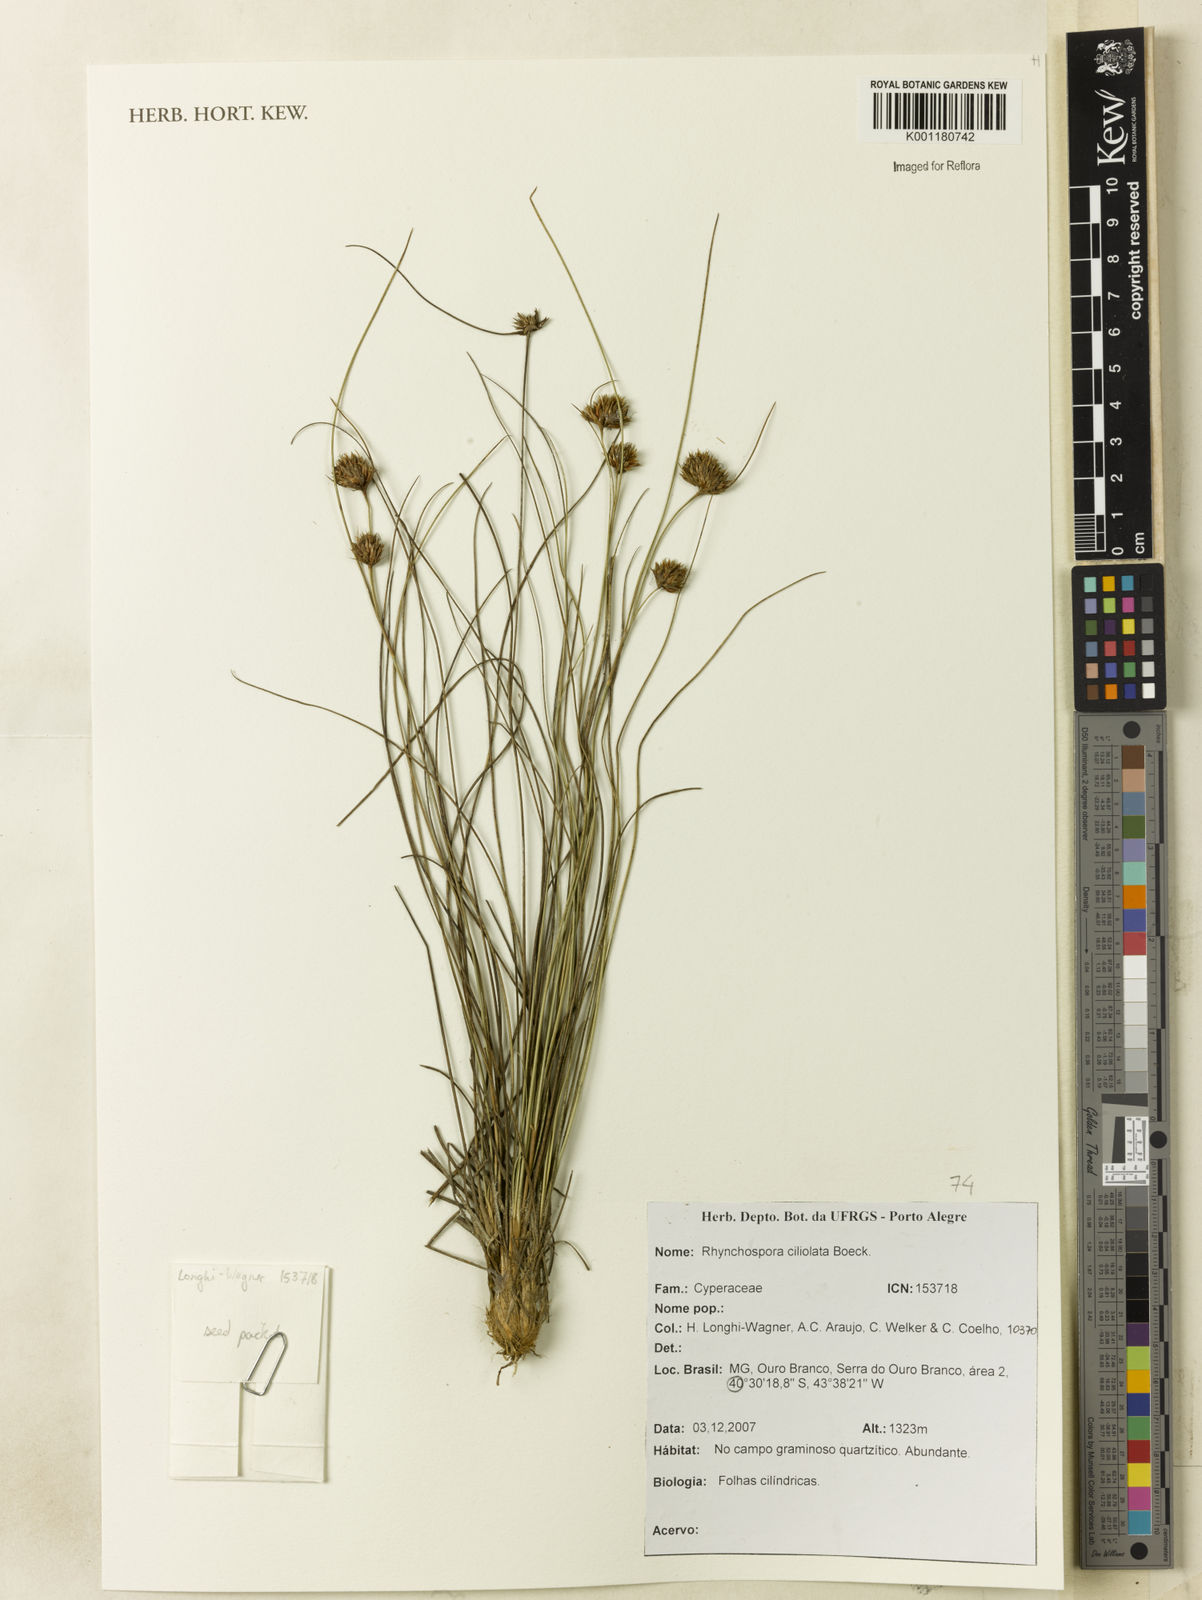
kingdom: Plantae
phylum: Tracheophyta
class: Liliopsida
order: Poales
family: Cyperaceae
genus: Rhynchospora
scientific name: Rhynchospora ciliolata
